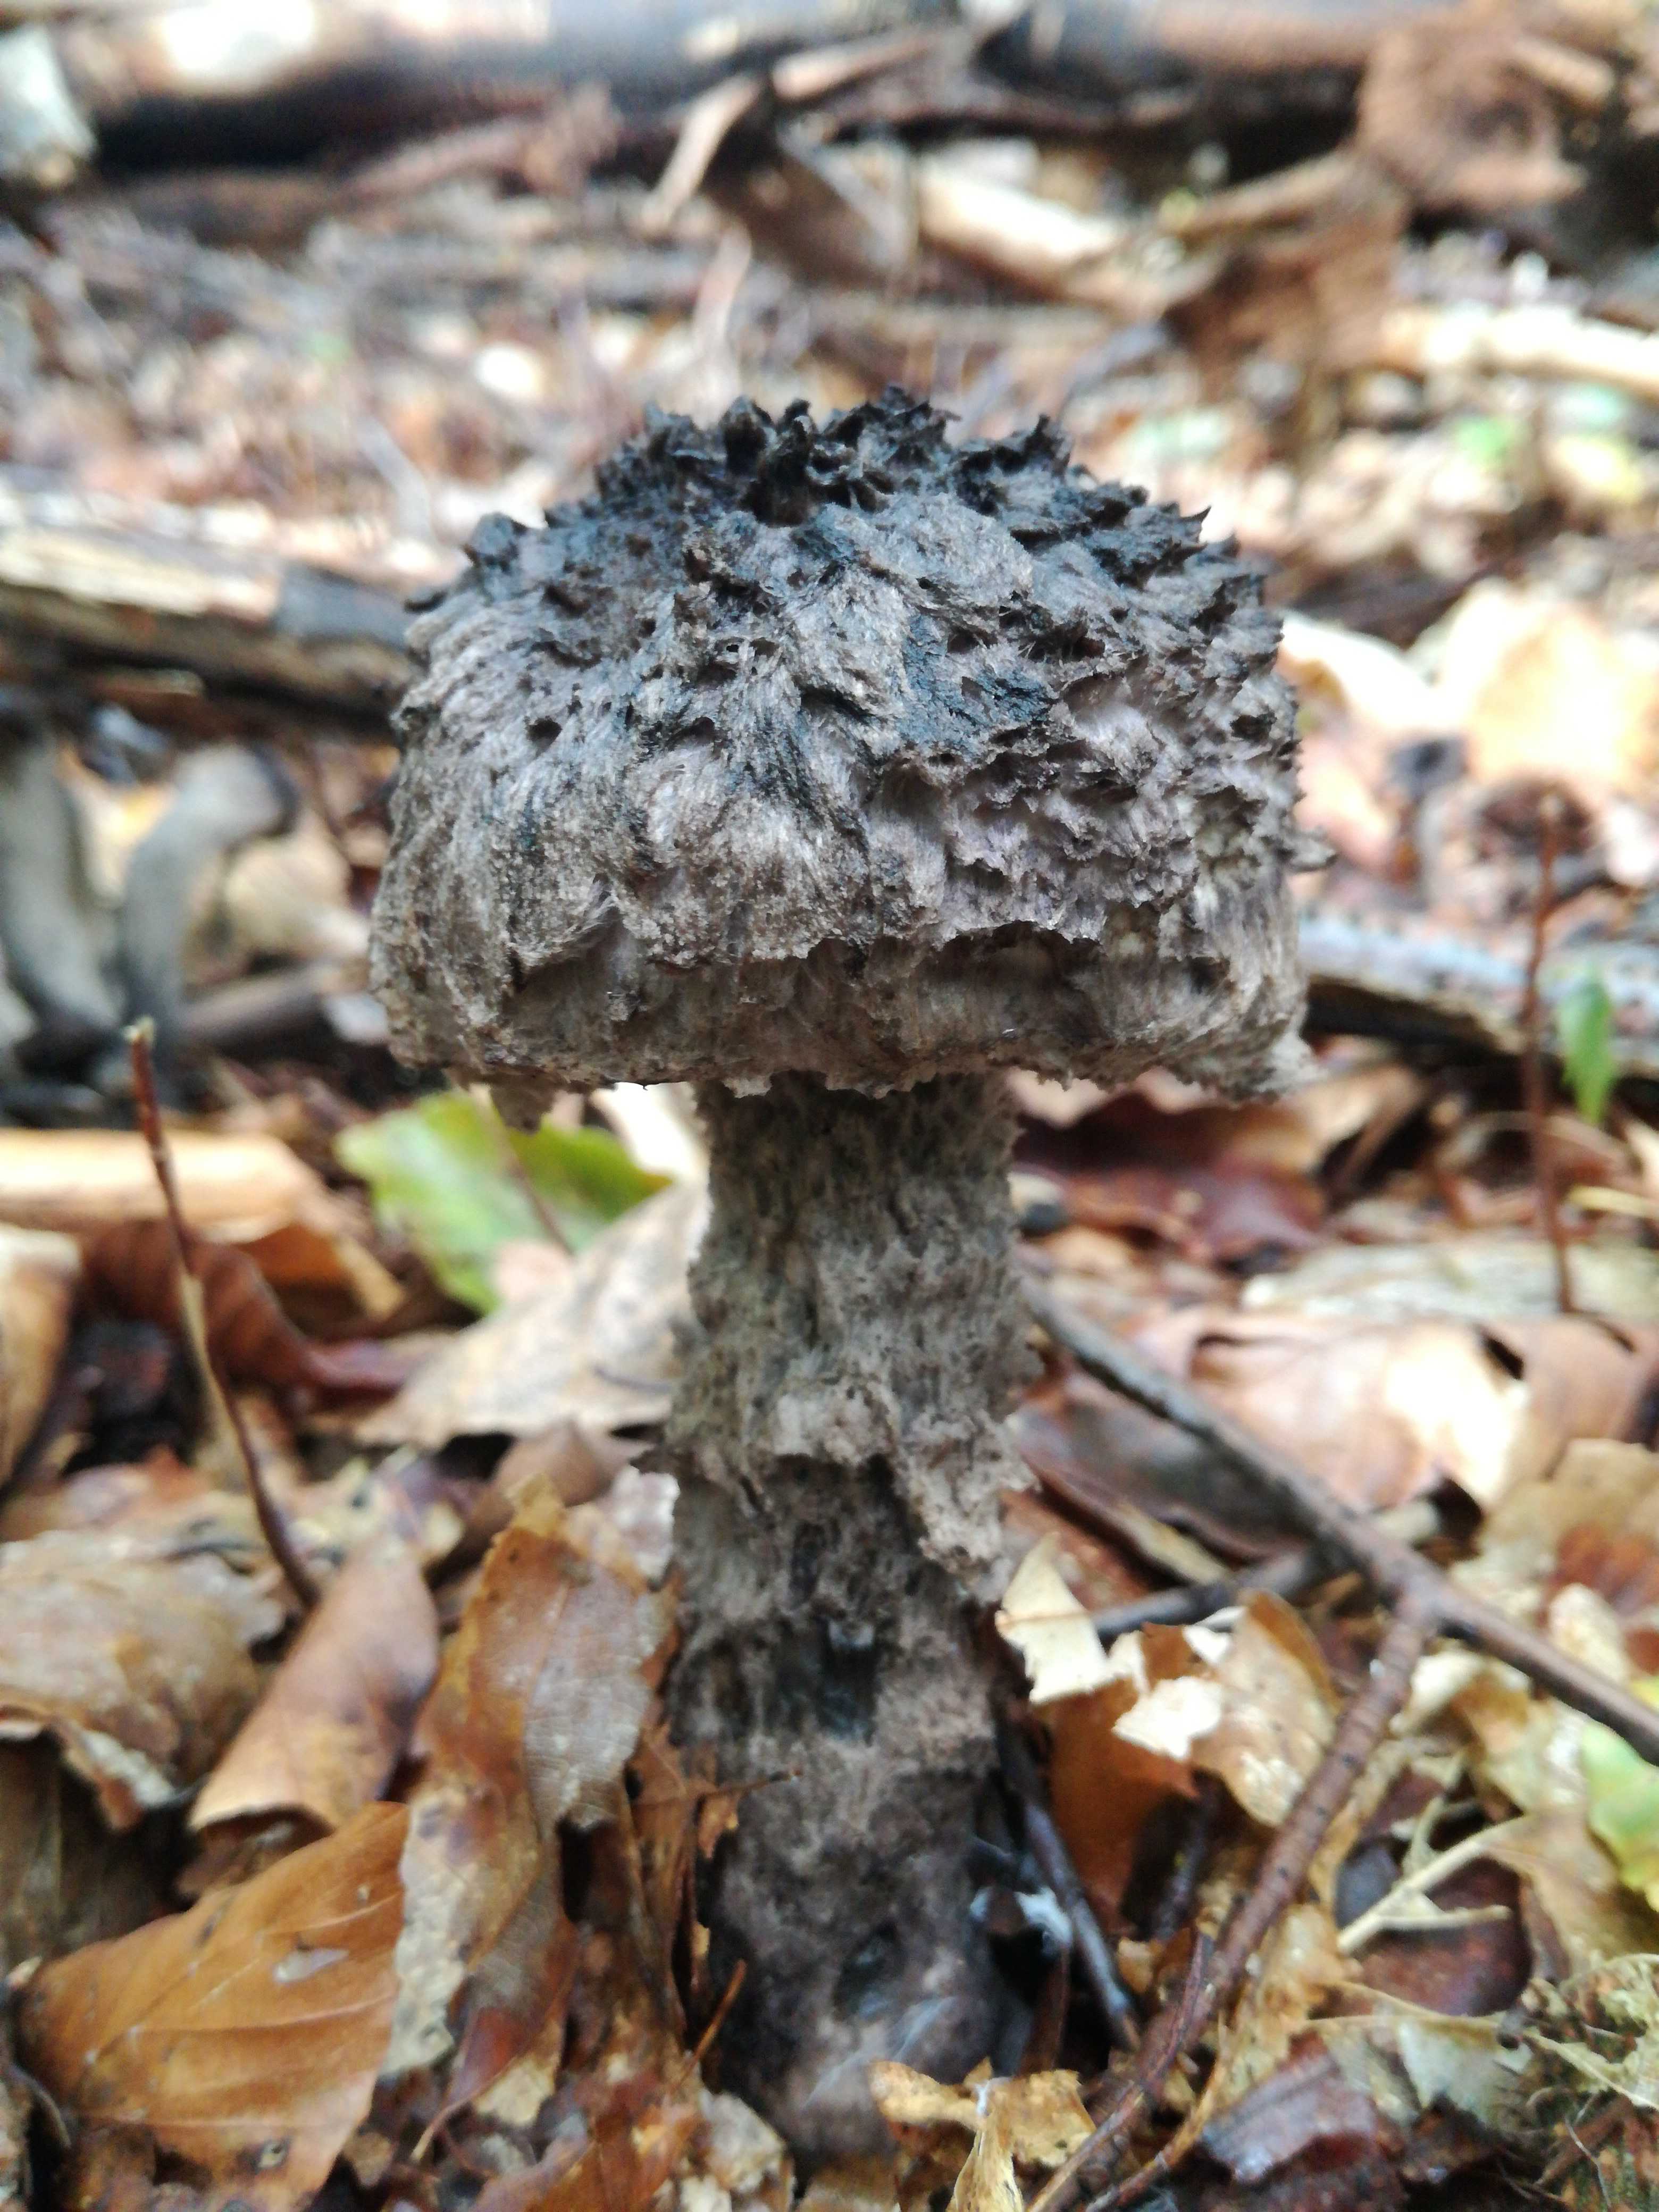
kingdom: Fungi
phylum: Basidiomycota
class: Agaricomycetes
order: Boletales
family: Boletaceae
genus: Strobilomyces
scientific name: Strobilomyces strobilaceus
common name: koglerørhat
